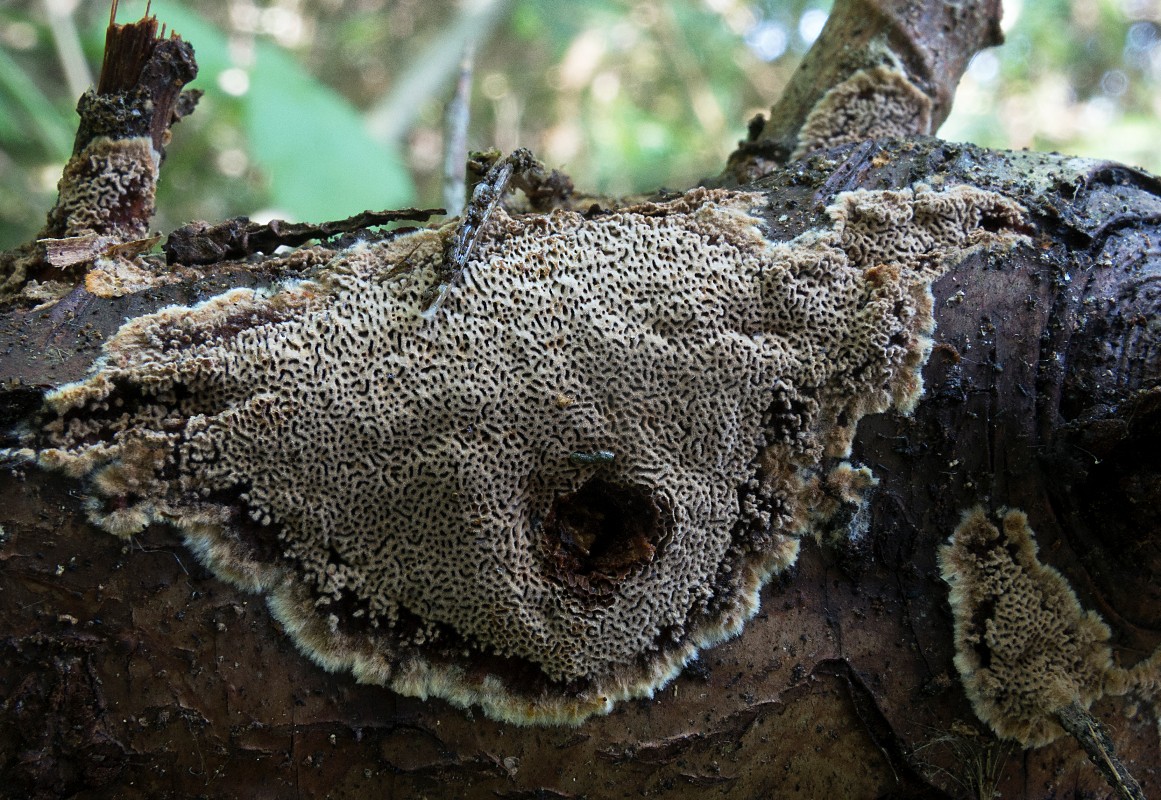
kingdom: Fungi
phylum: Basidiomycota
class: Agaricomycetes
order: Hymenochaetales
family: Hymenochaetaceae
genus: Fuscoporia
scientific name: Fuscoporia contigua
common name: grov ildporesvamp
